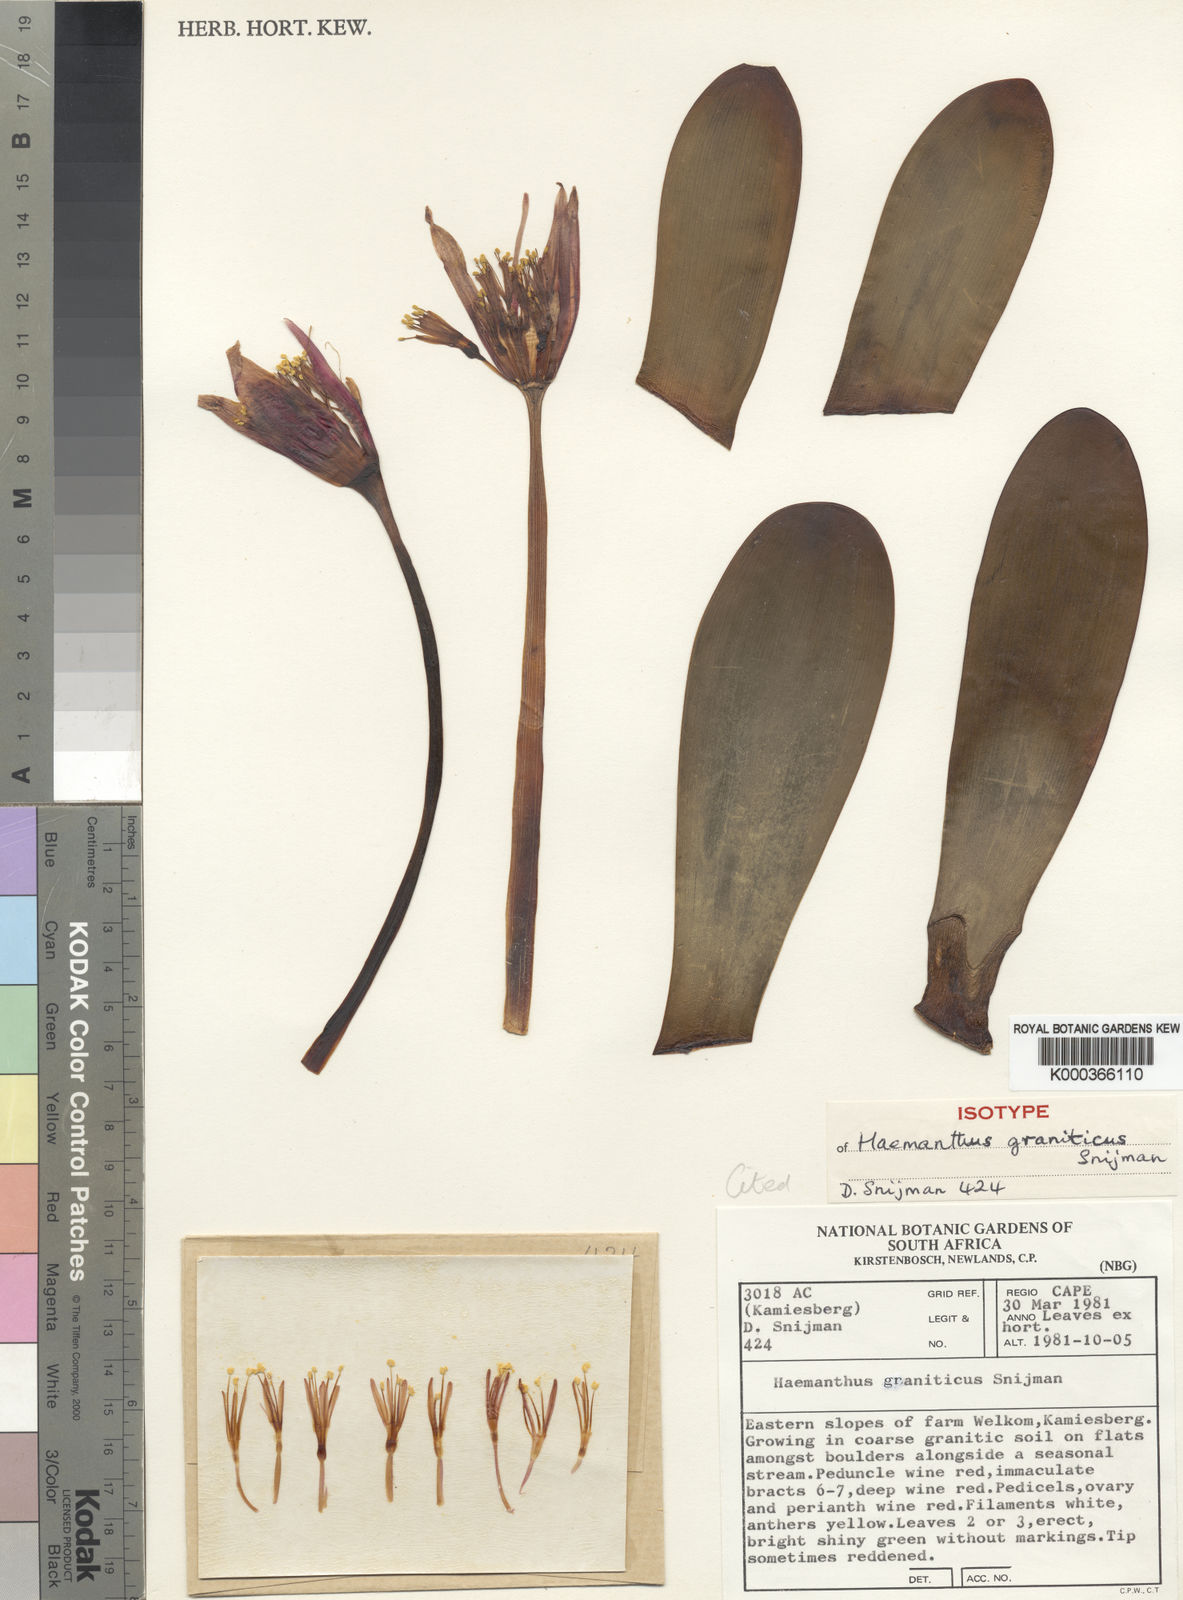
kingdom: Plantae
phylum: Tracheophyta
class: Liliopsida
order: Asparagales
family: Amaryllidaceae
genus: Haemanthus
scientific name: Haemanthus graniticus
